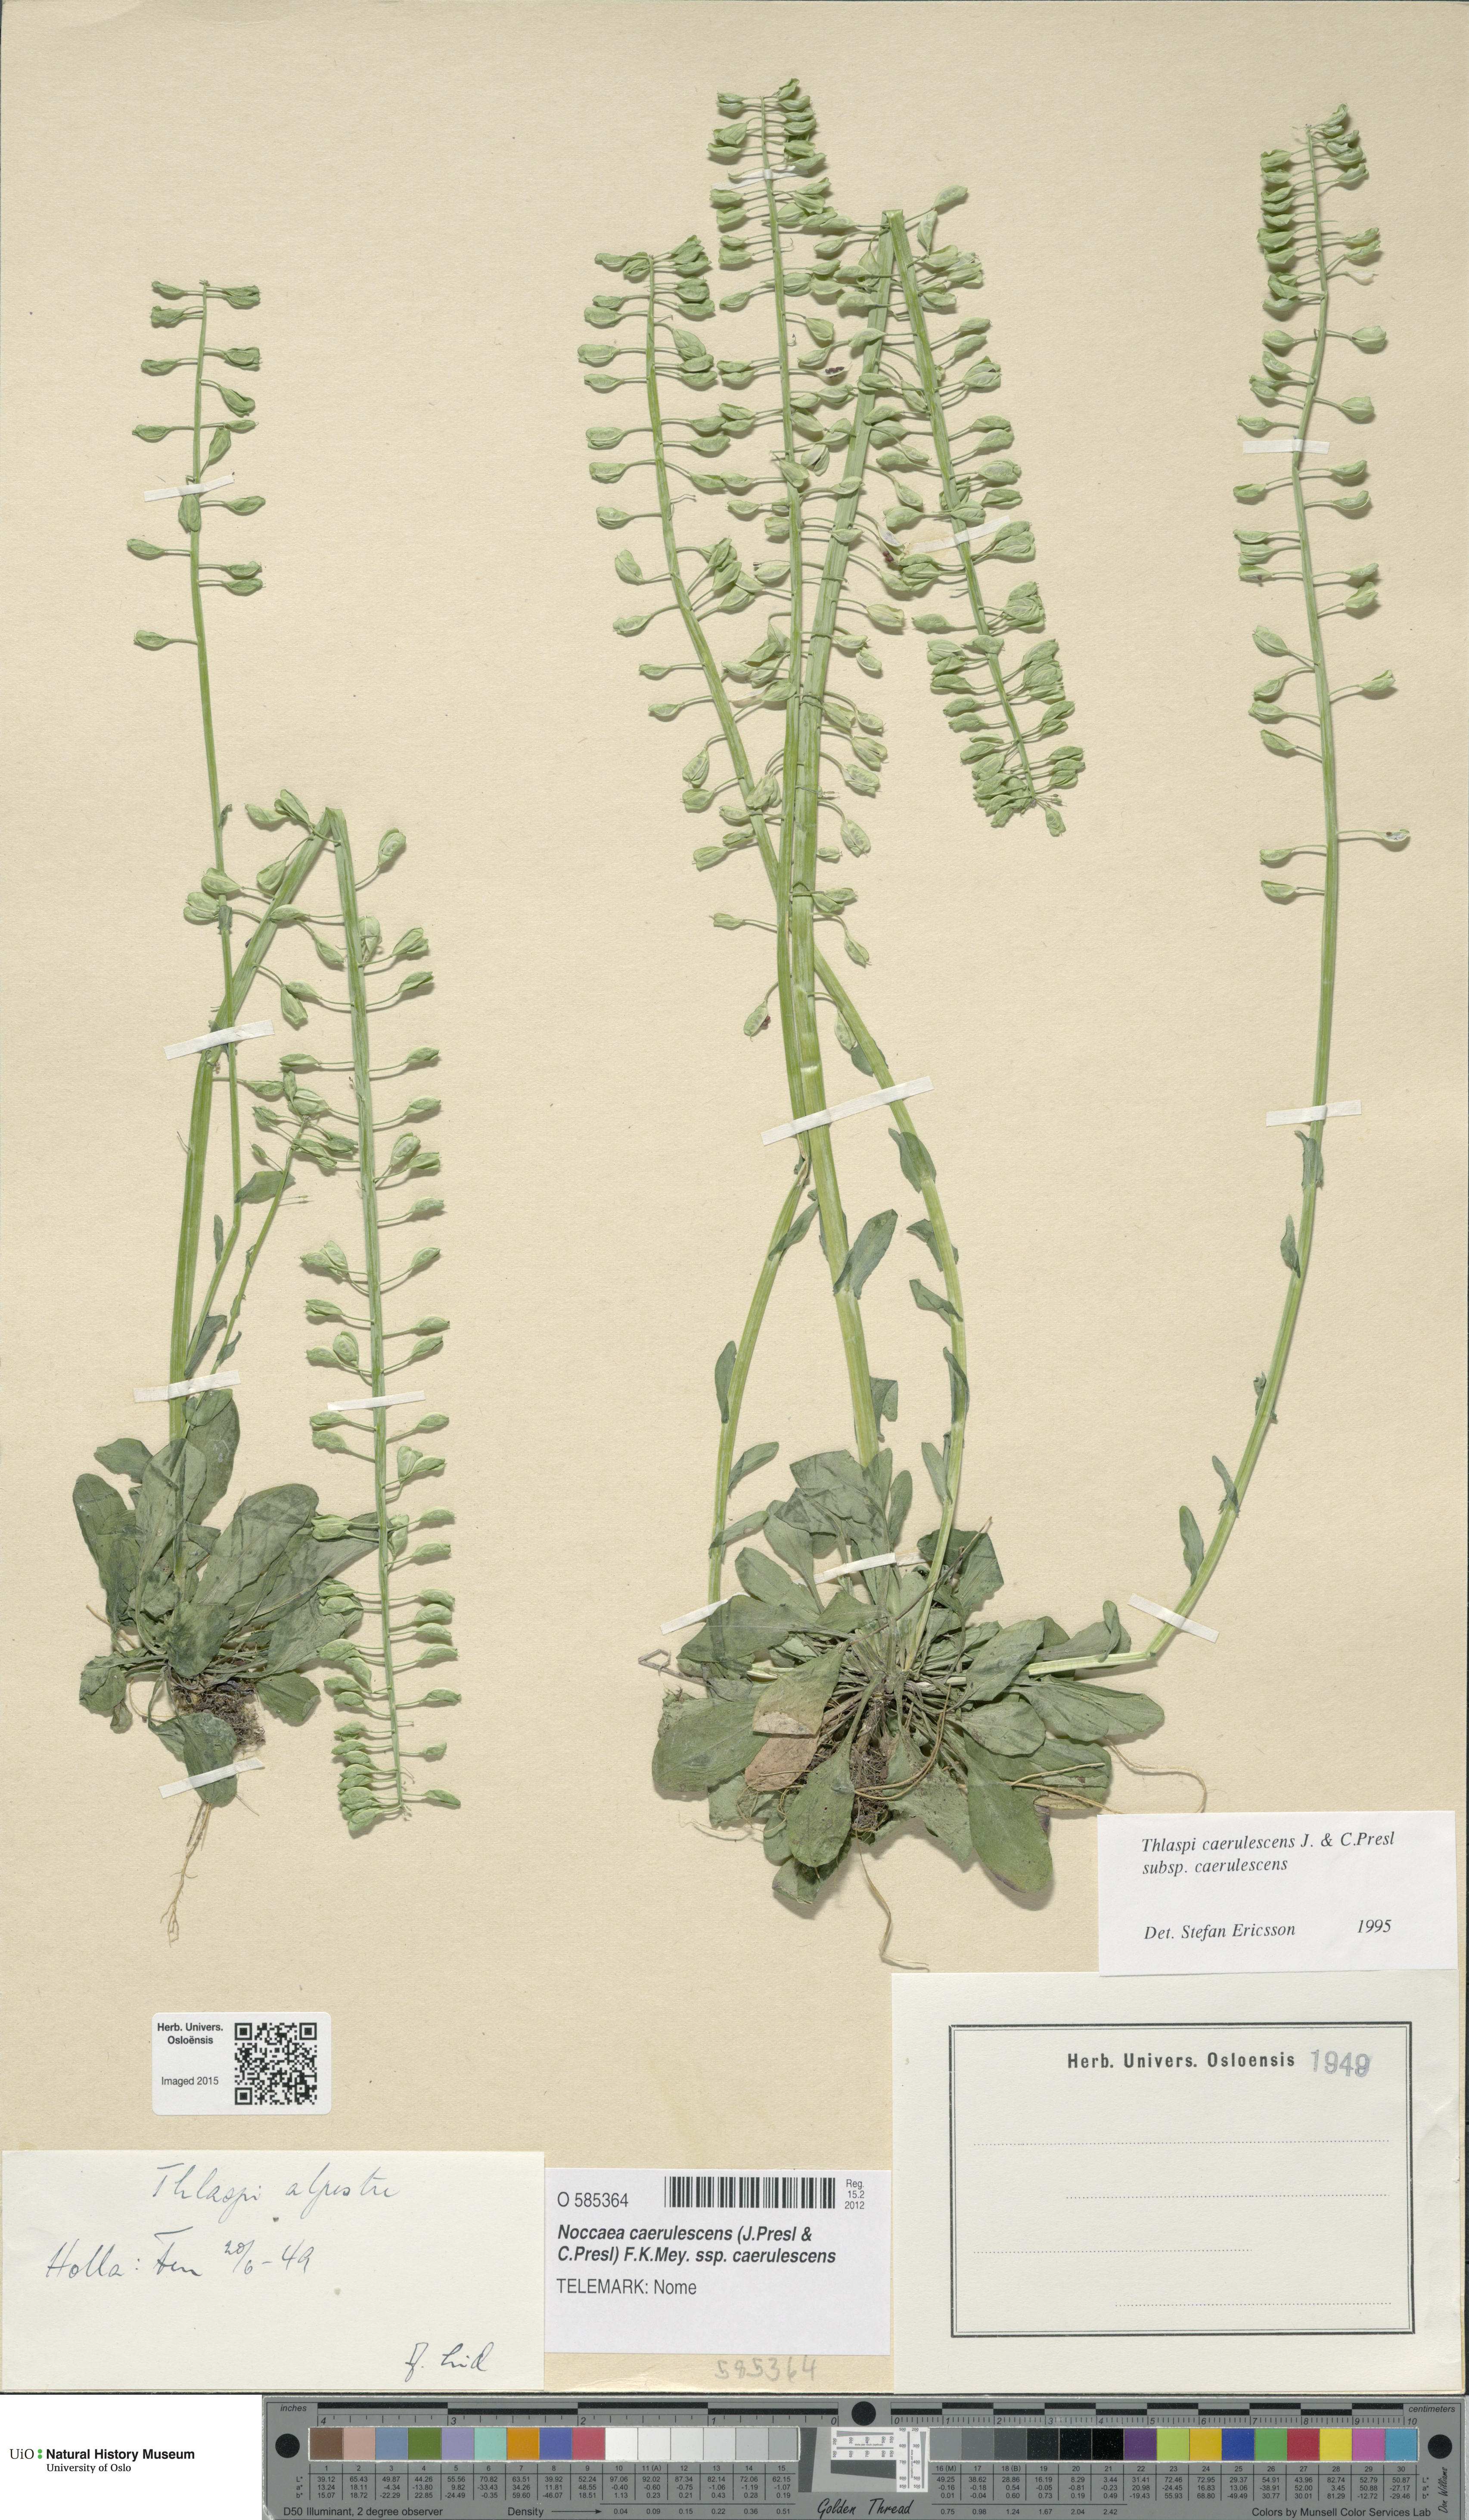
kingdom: Plantae
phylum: Tracheophyta
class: Magnoliopsida
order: Brassicales
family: Brassicaceae
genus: Noccaea
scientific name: Noccaea caerulescens
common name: Alpine pennycress
